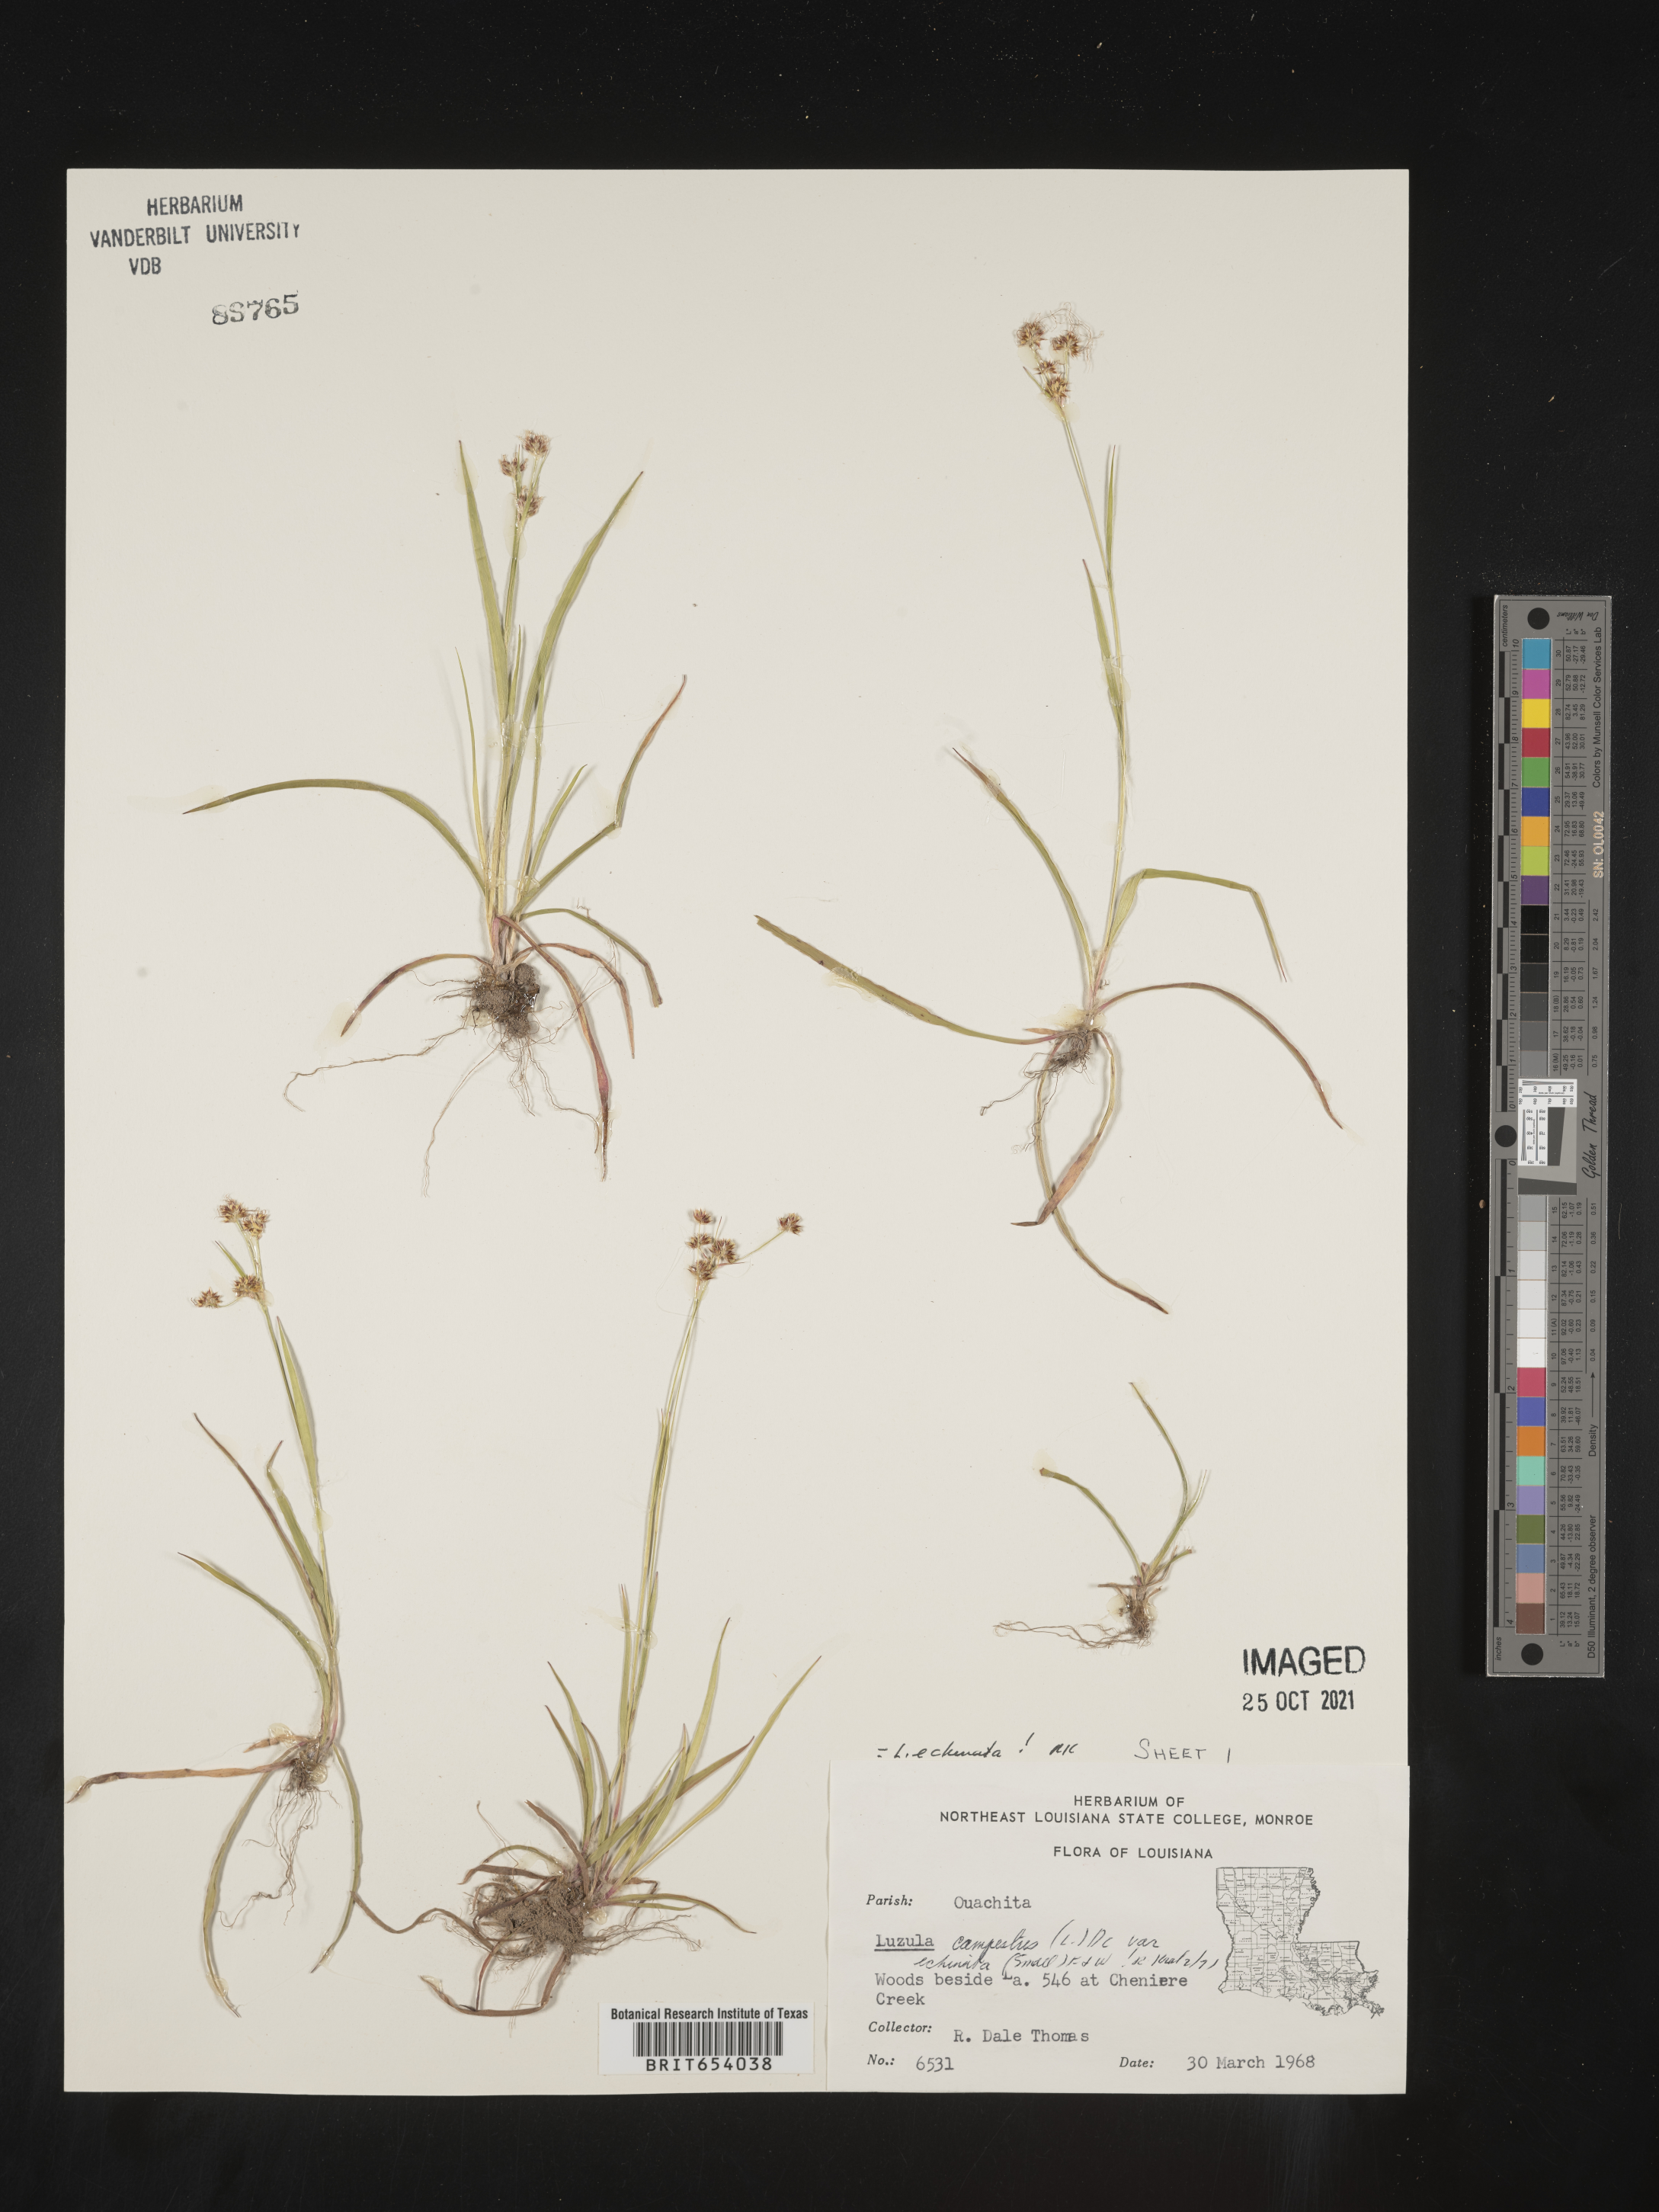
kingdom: Plantae
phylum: Tracheophyta
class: Liliopsida
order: Poales
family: Juncaceae
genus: Luzula
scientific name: Luzula echinata
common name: Hedgehog woodrush
